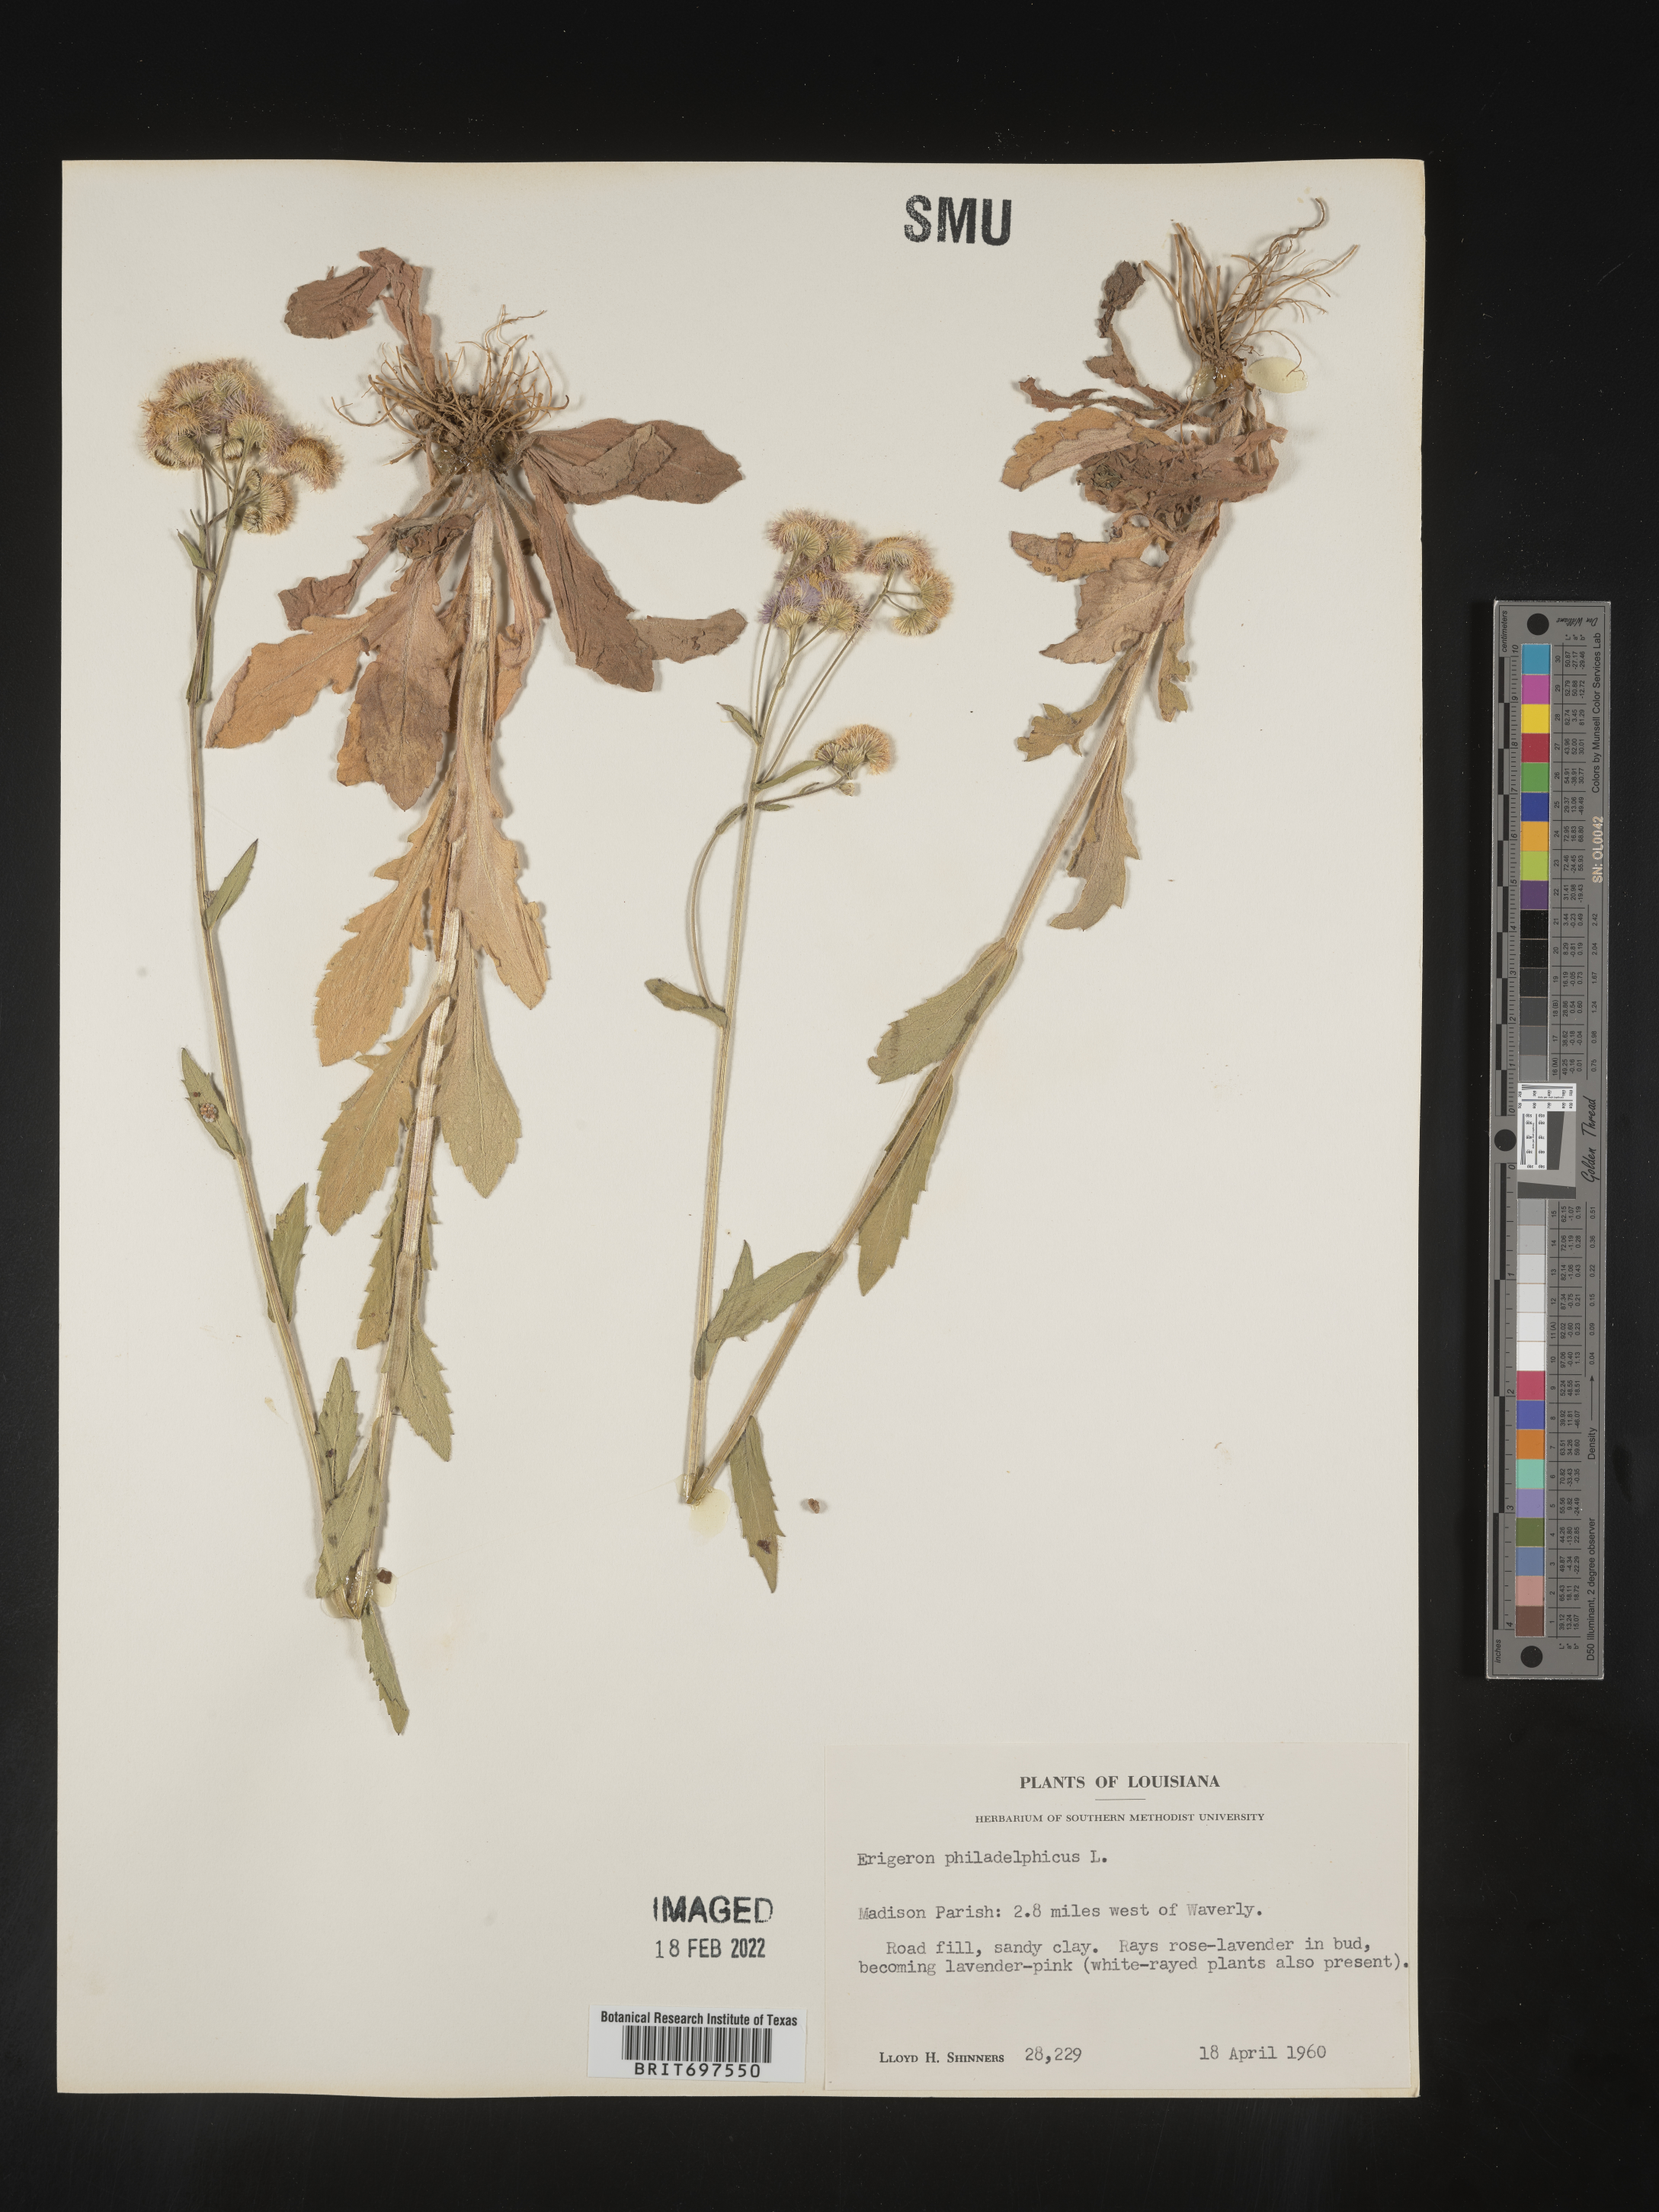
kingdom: Plantae
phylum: Tracheophyta
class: Magnoliopsida
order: Asterales
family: Asteraceae
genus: Erigeron
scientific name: Erigeron philadelphicus
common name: Robin's-plantain
